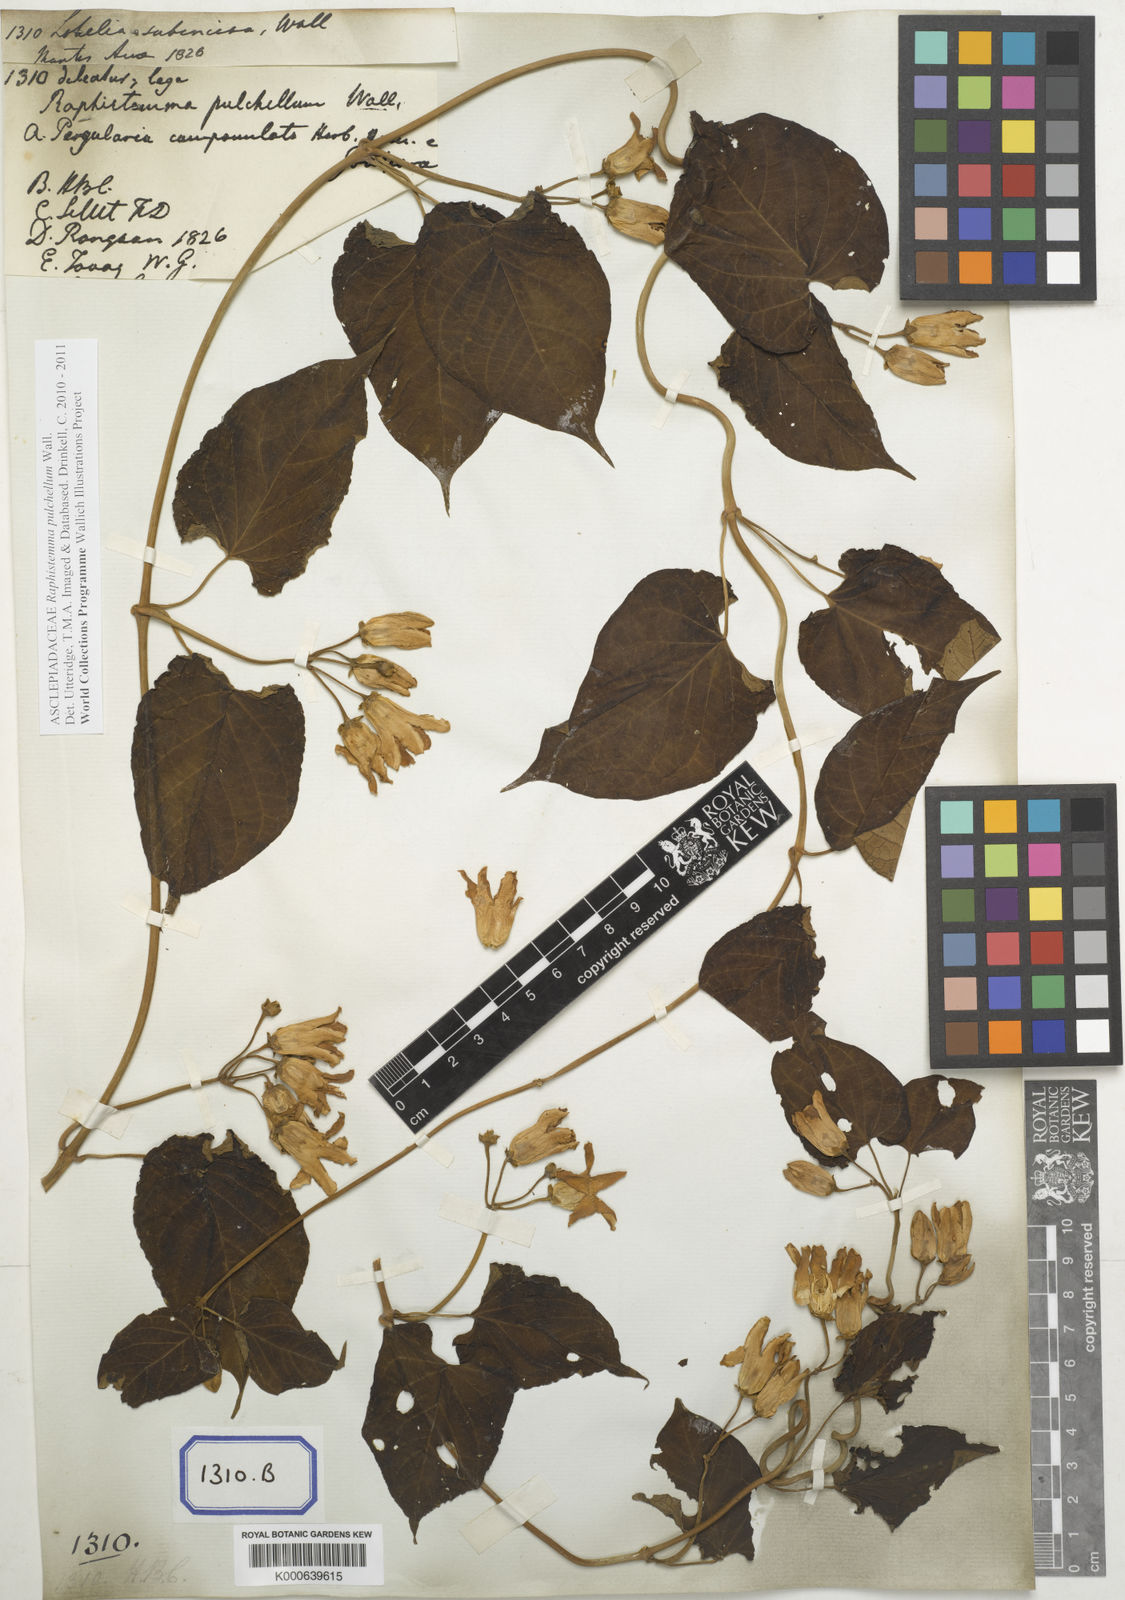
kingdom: Plantae
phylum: Tracheophyta
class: Magnoliopsida
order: Gentianales
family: Apocynaceae
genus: Cynanchum
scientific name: Cynanchum pulchellum
